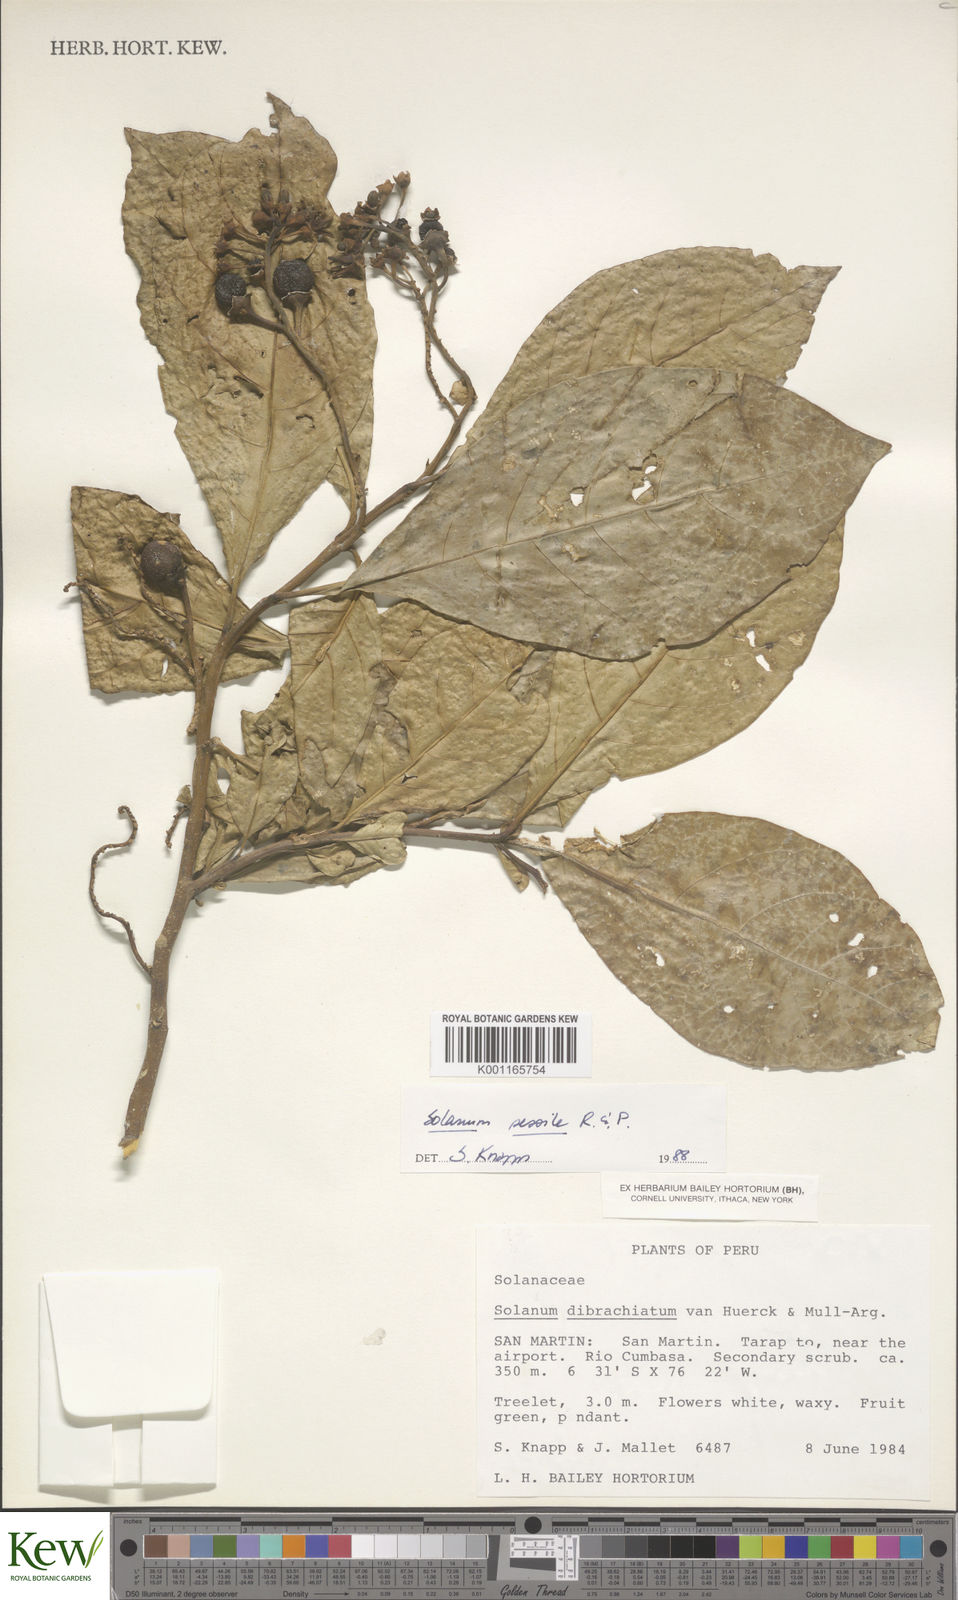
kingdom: Plantae
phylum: Tracheophyta
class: Magnoliopsida
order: Solanales
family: Solanaceae
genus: Solanum
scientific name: Solanum sessile
